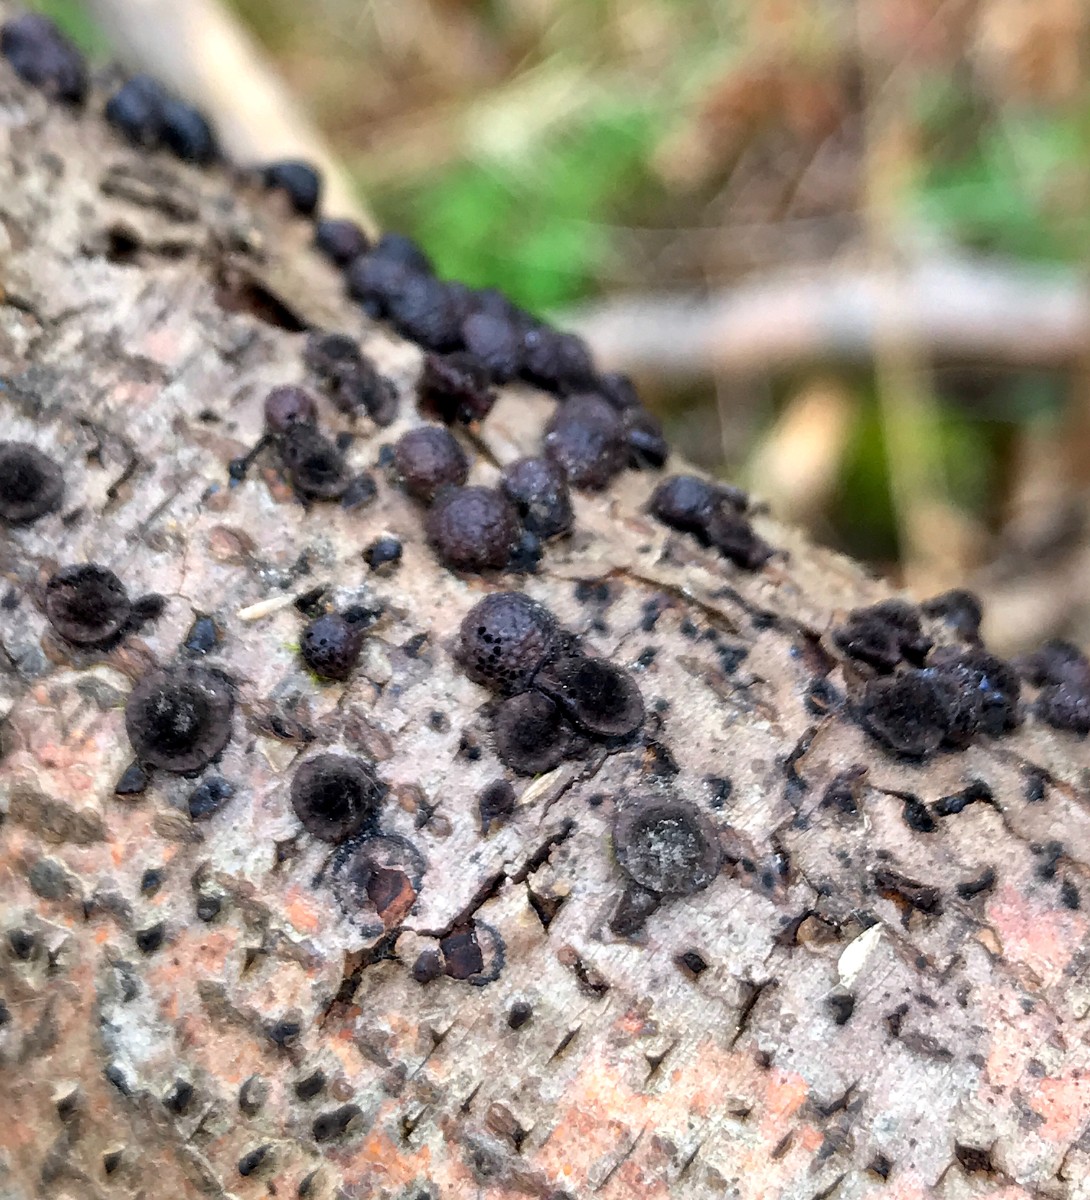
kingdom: Fungi
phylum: Ascomycota
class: Sordariomycetes
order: Xylariales
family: Hypoxylaceae
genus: Hypoxylon
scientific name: Hypoxylon fragiforme
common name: kuljordbær
